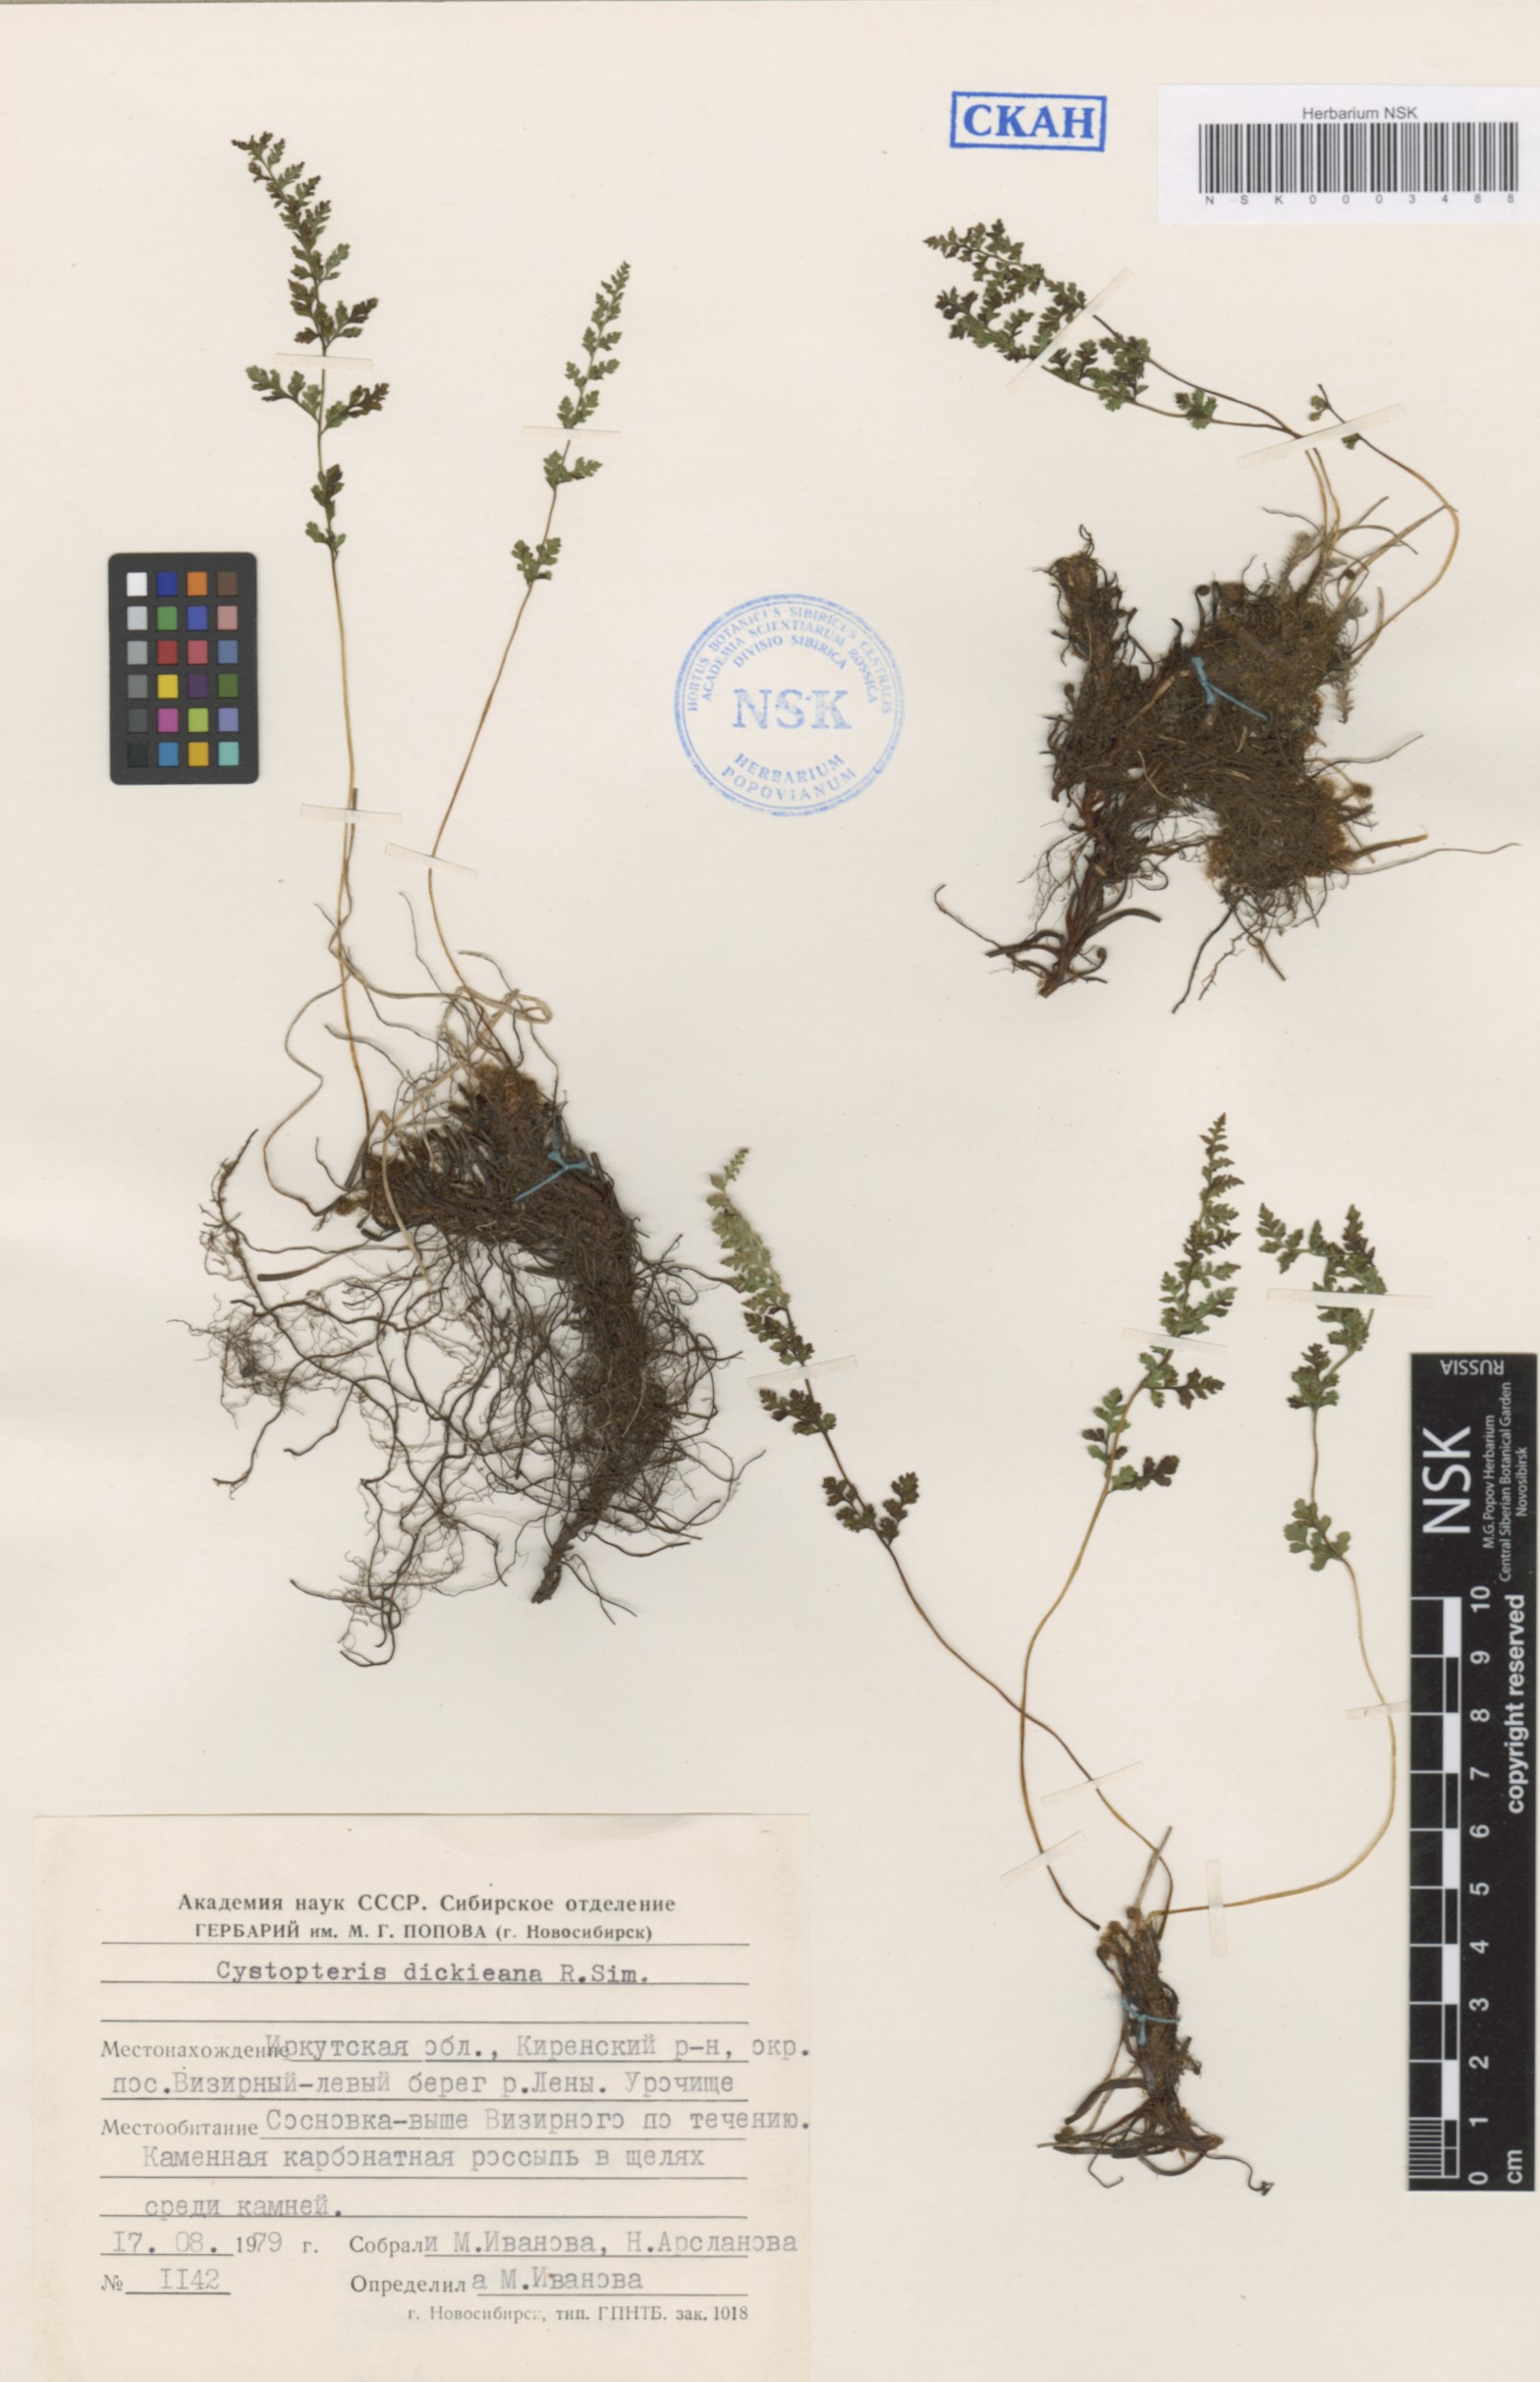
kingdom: Plantae
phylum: Tracheophyta
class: Polypodiopsida
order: Polypodiales
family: Cystopteridaceae
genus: Cystopteris
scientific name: Cystopteris dickieana
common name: Dickie's bladder-fern
